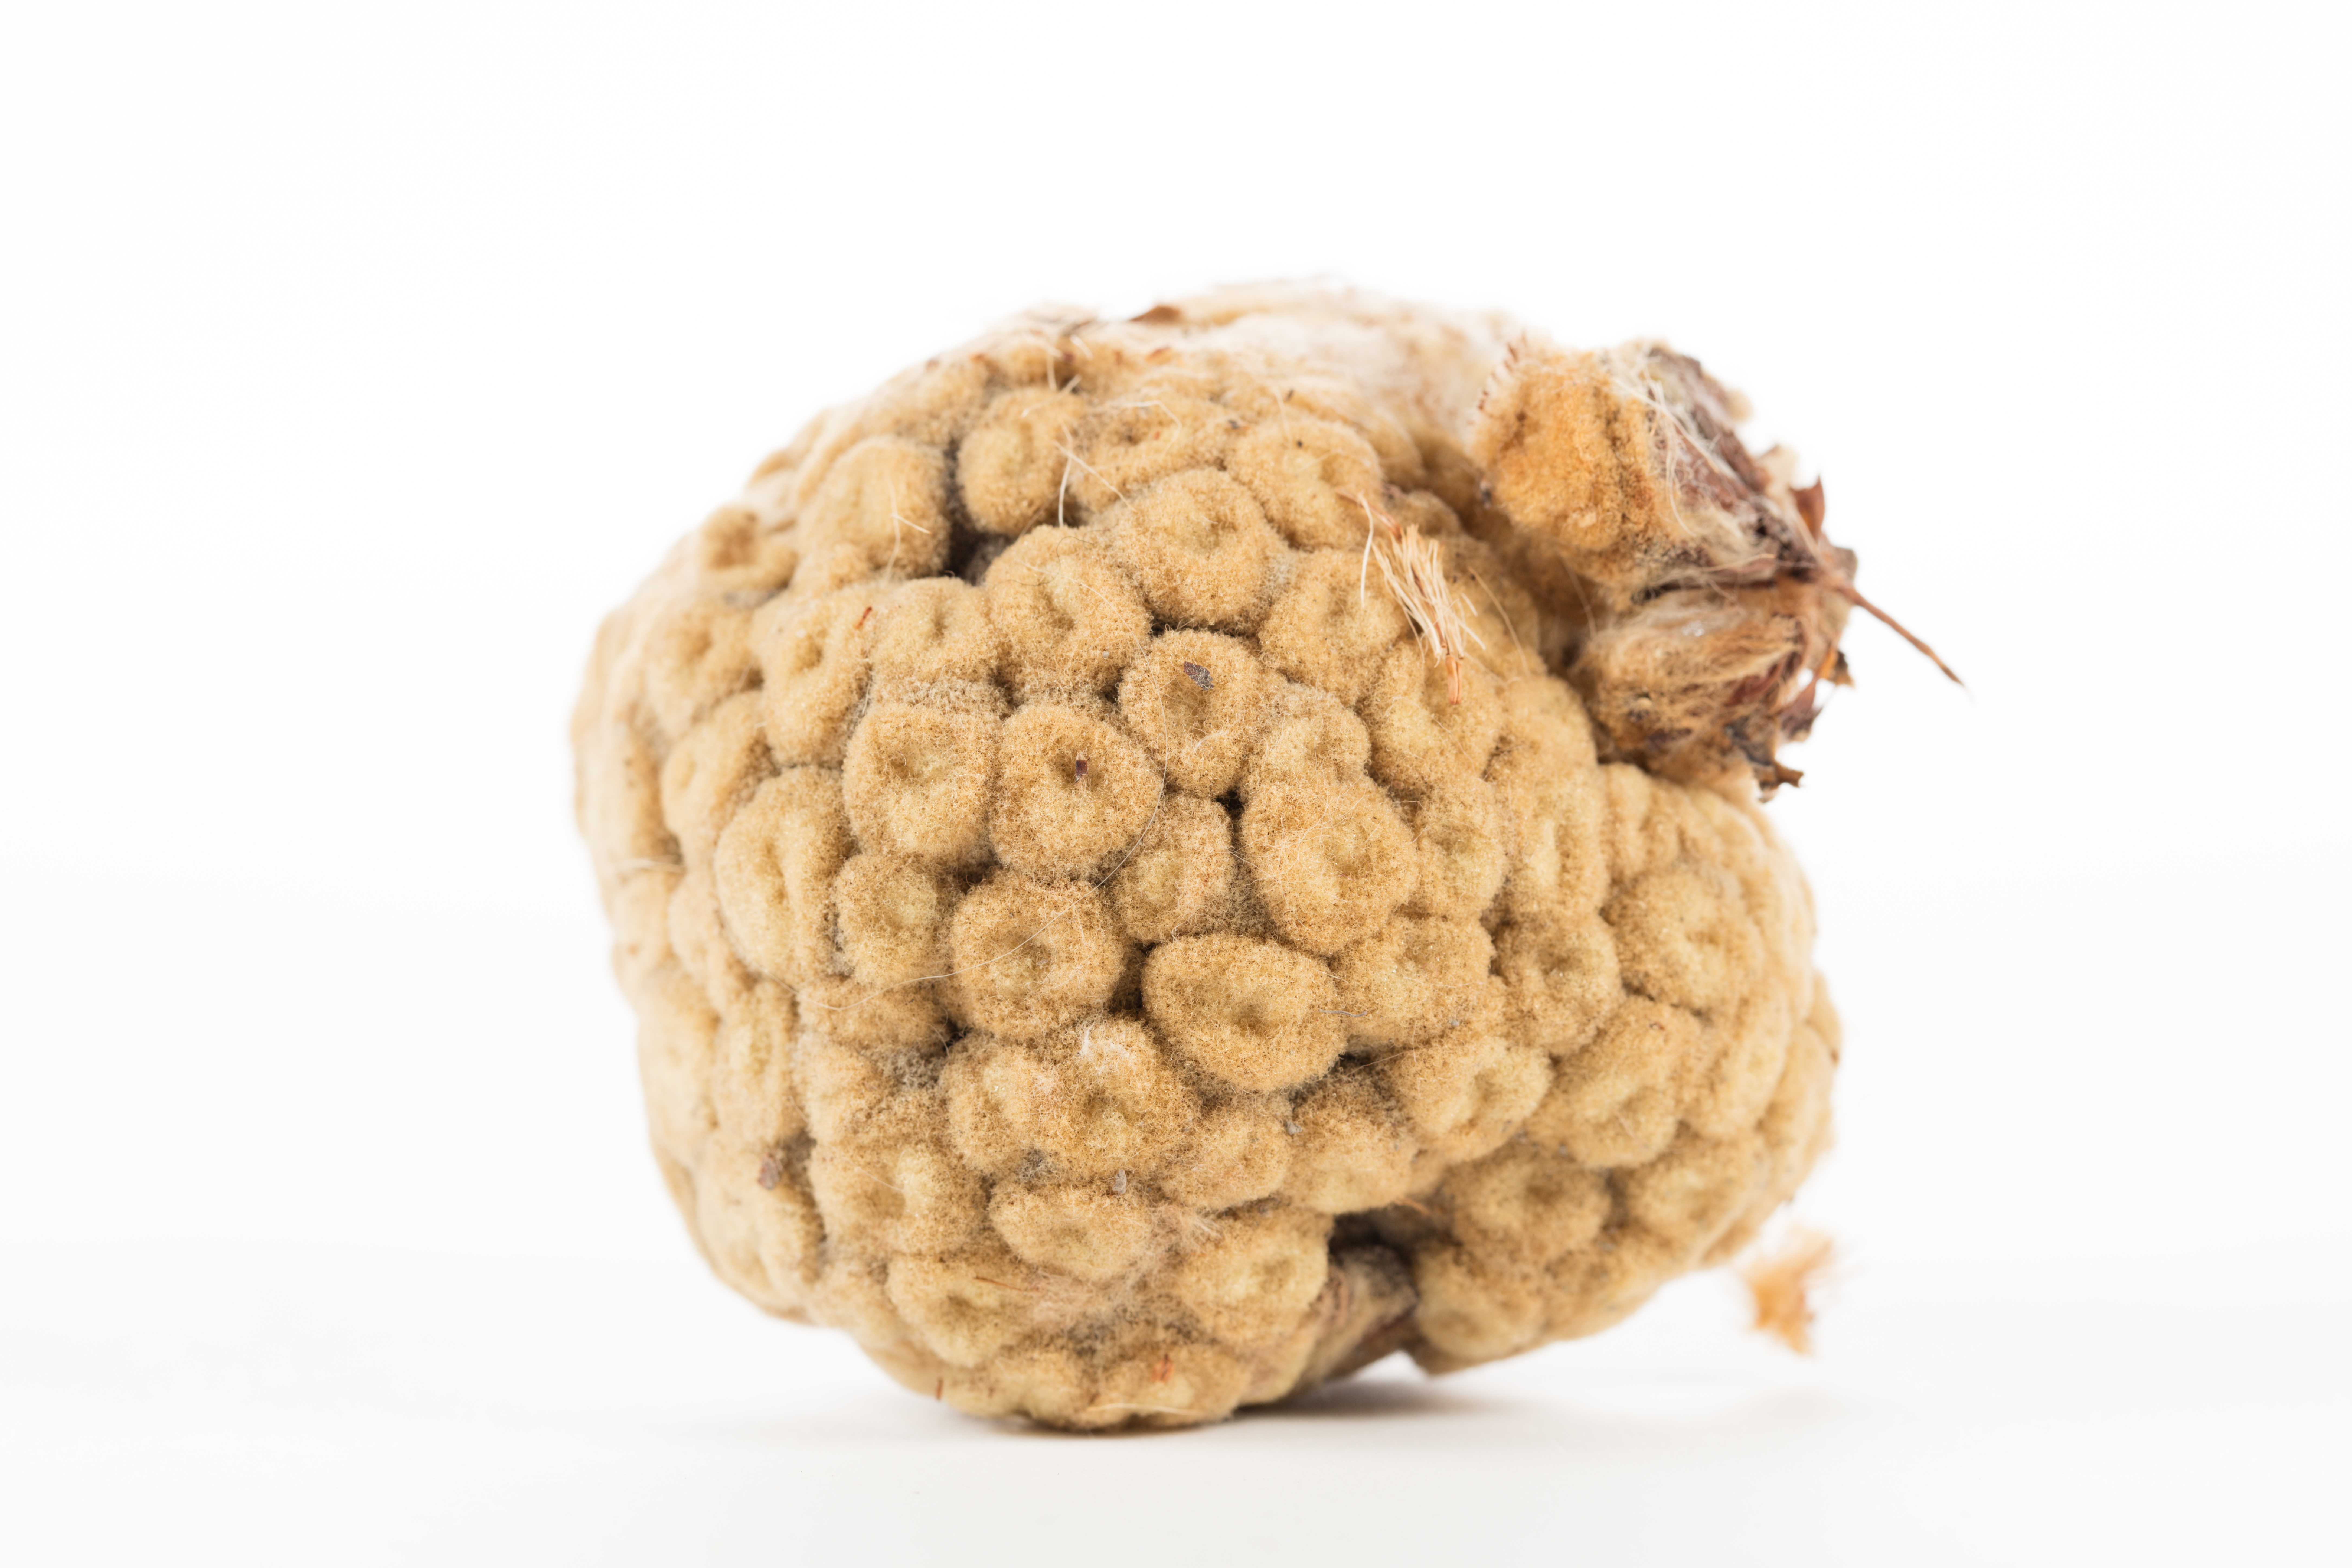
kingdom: Plantae
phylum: Tracheophyta
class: Magnoliopsida
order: Asterales
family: Asteraceae
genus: Haastia
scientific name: Haastia pulvinaris
